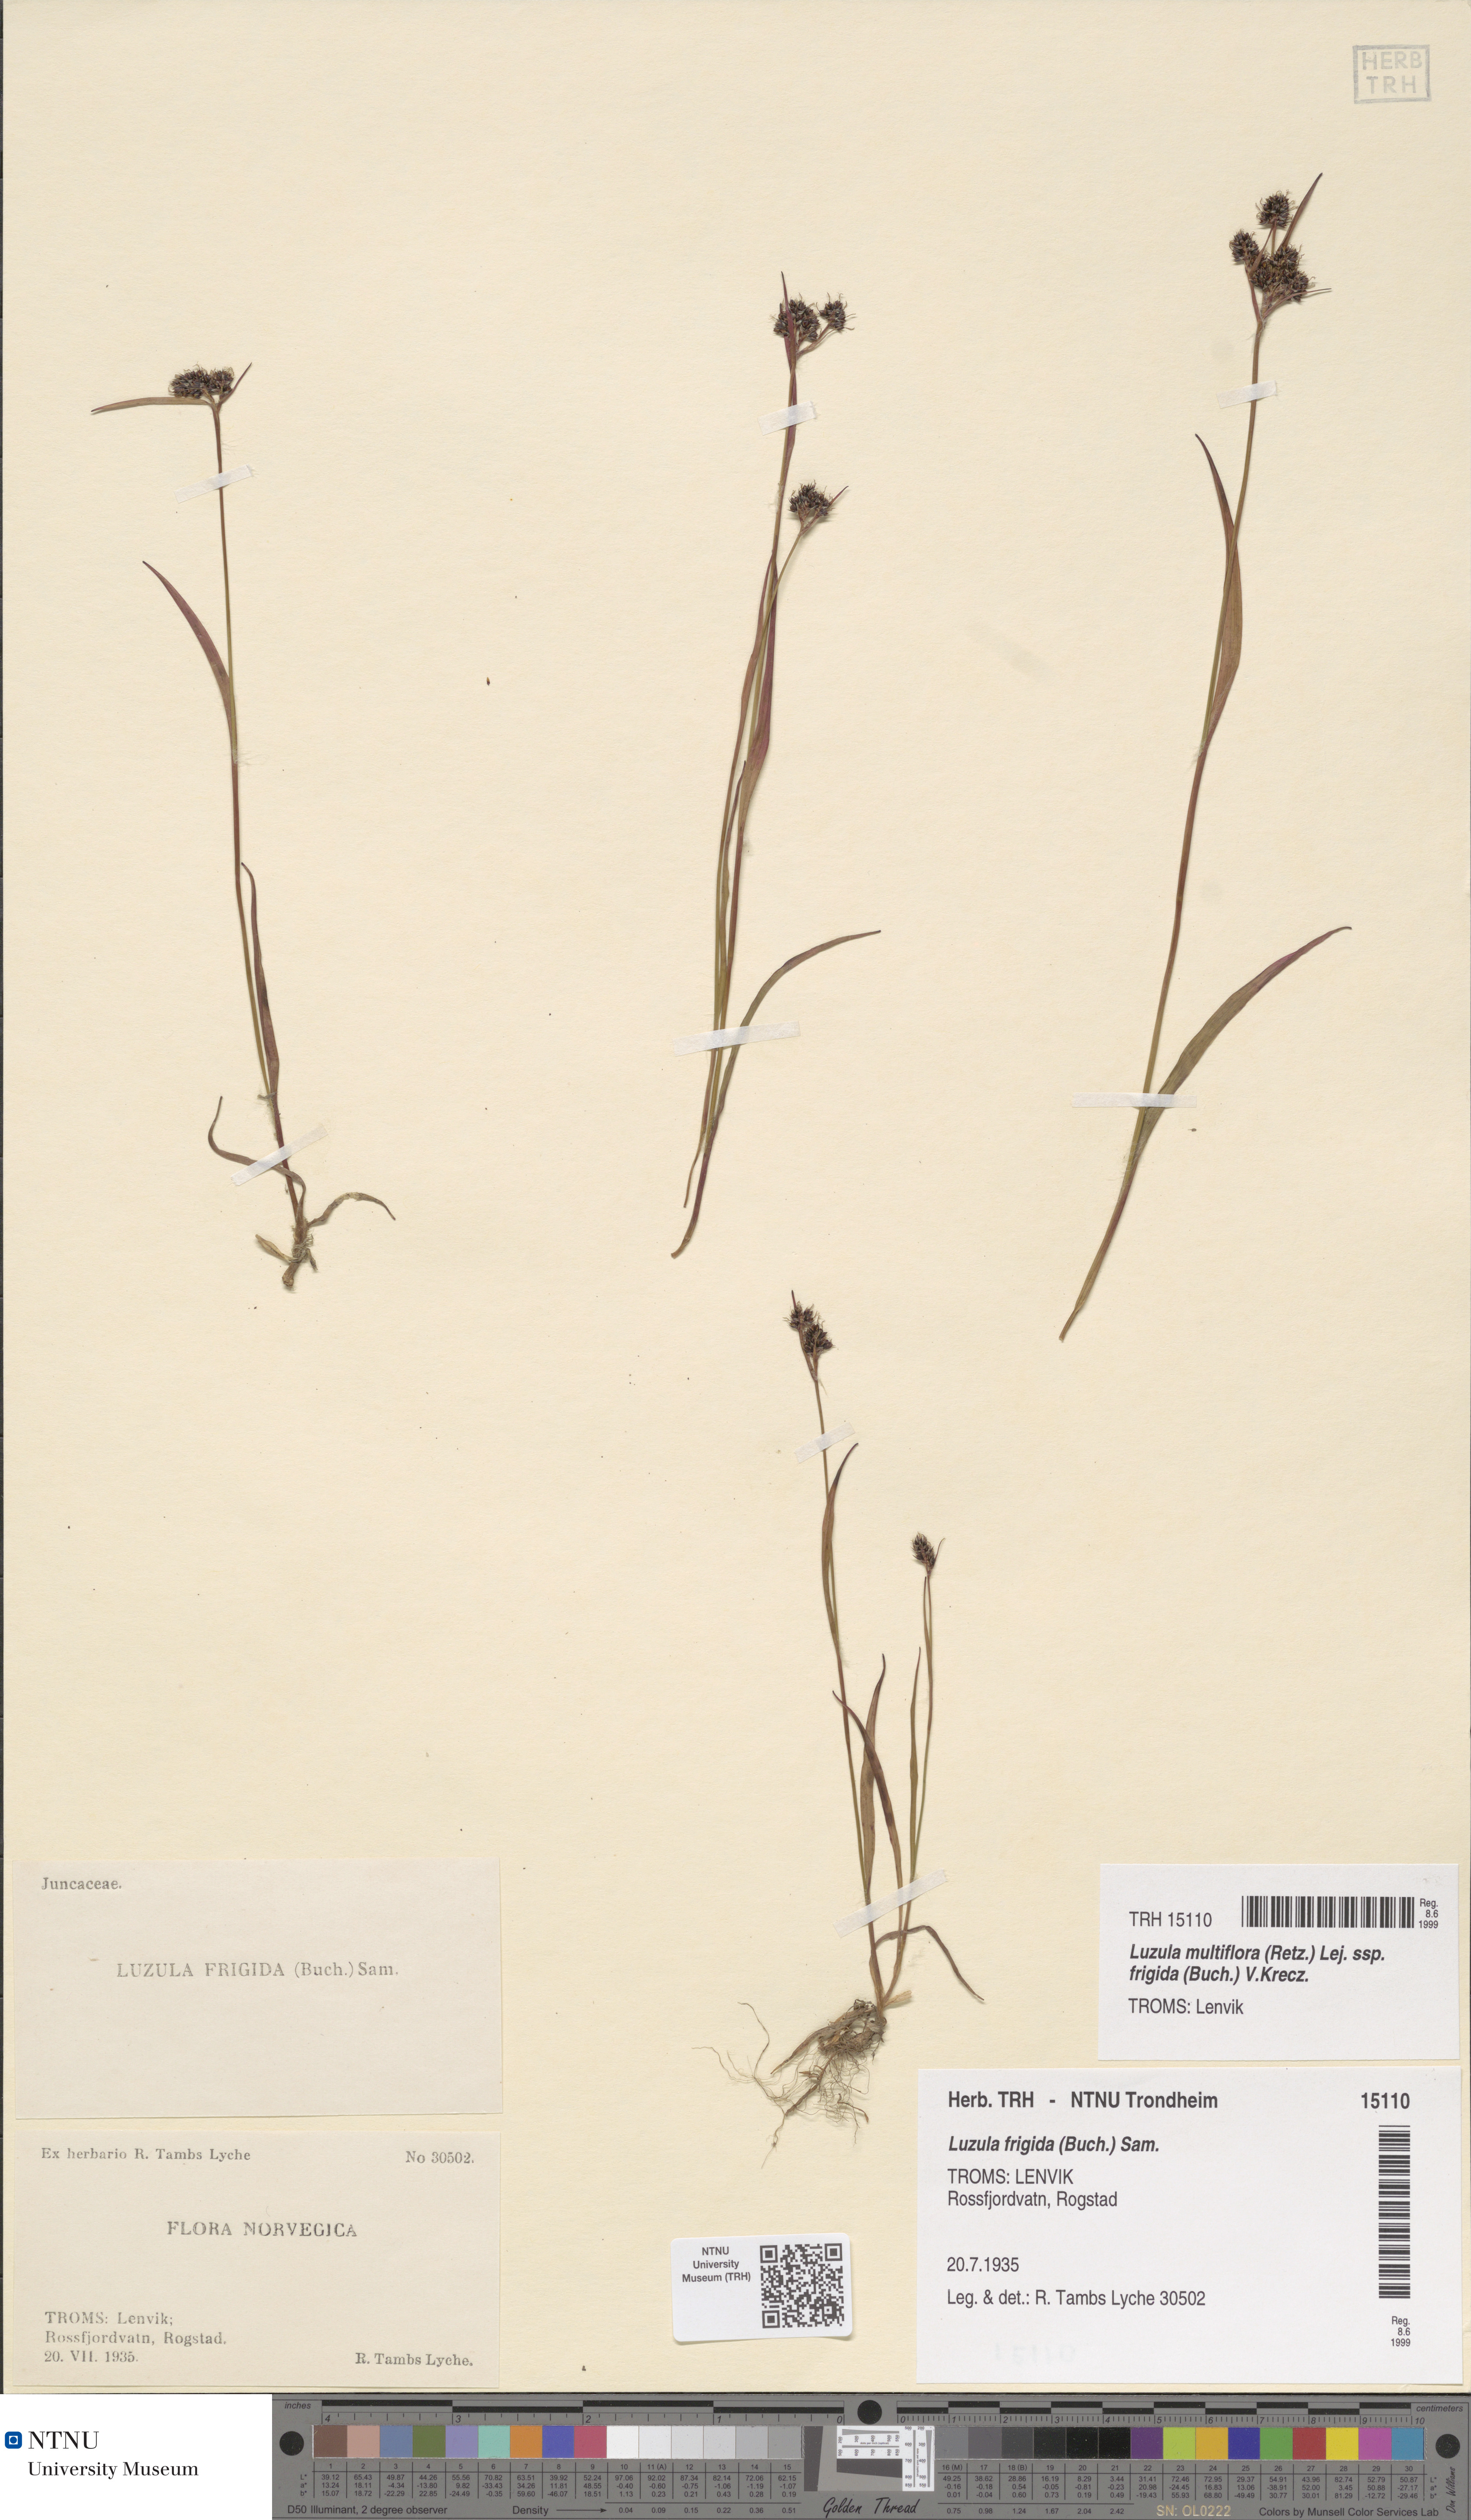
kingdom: Plantae
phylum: Tracheophyta
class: Liliopsida
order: Poales
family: Juncaceae
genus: Luzula
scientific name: Luzula multiflora
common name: Heath wood-rush
